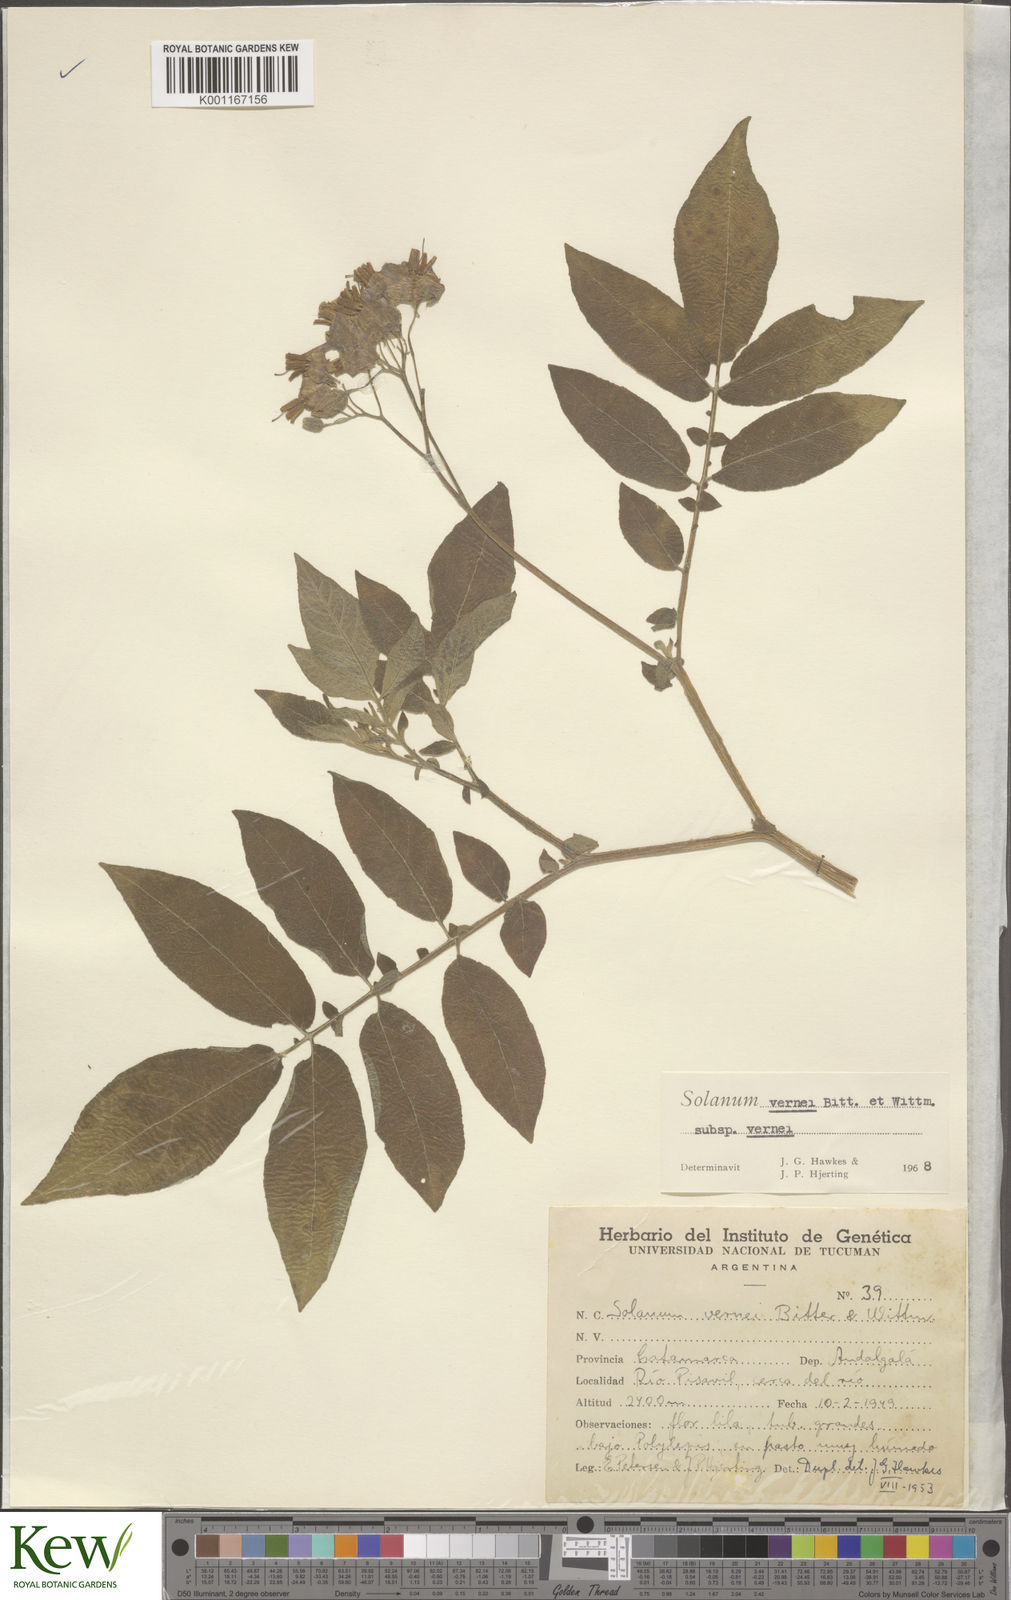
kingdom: Plantae
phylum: Tracheophyta
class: Magnoliopsida
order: Solanales
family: Solanaceae
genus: Solanum
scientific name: Solanum vernei
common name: Purple potato
